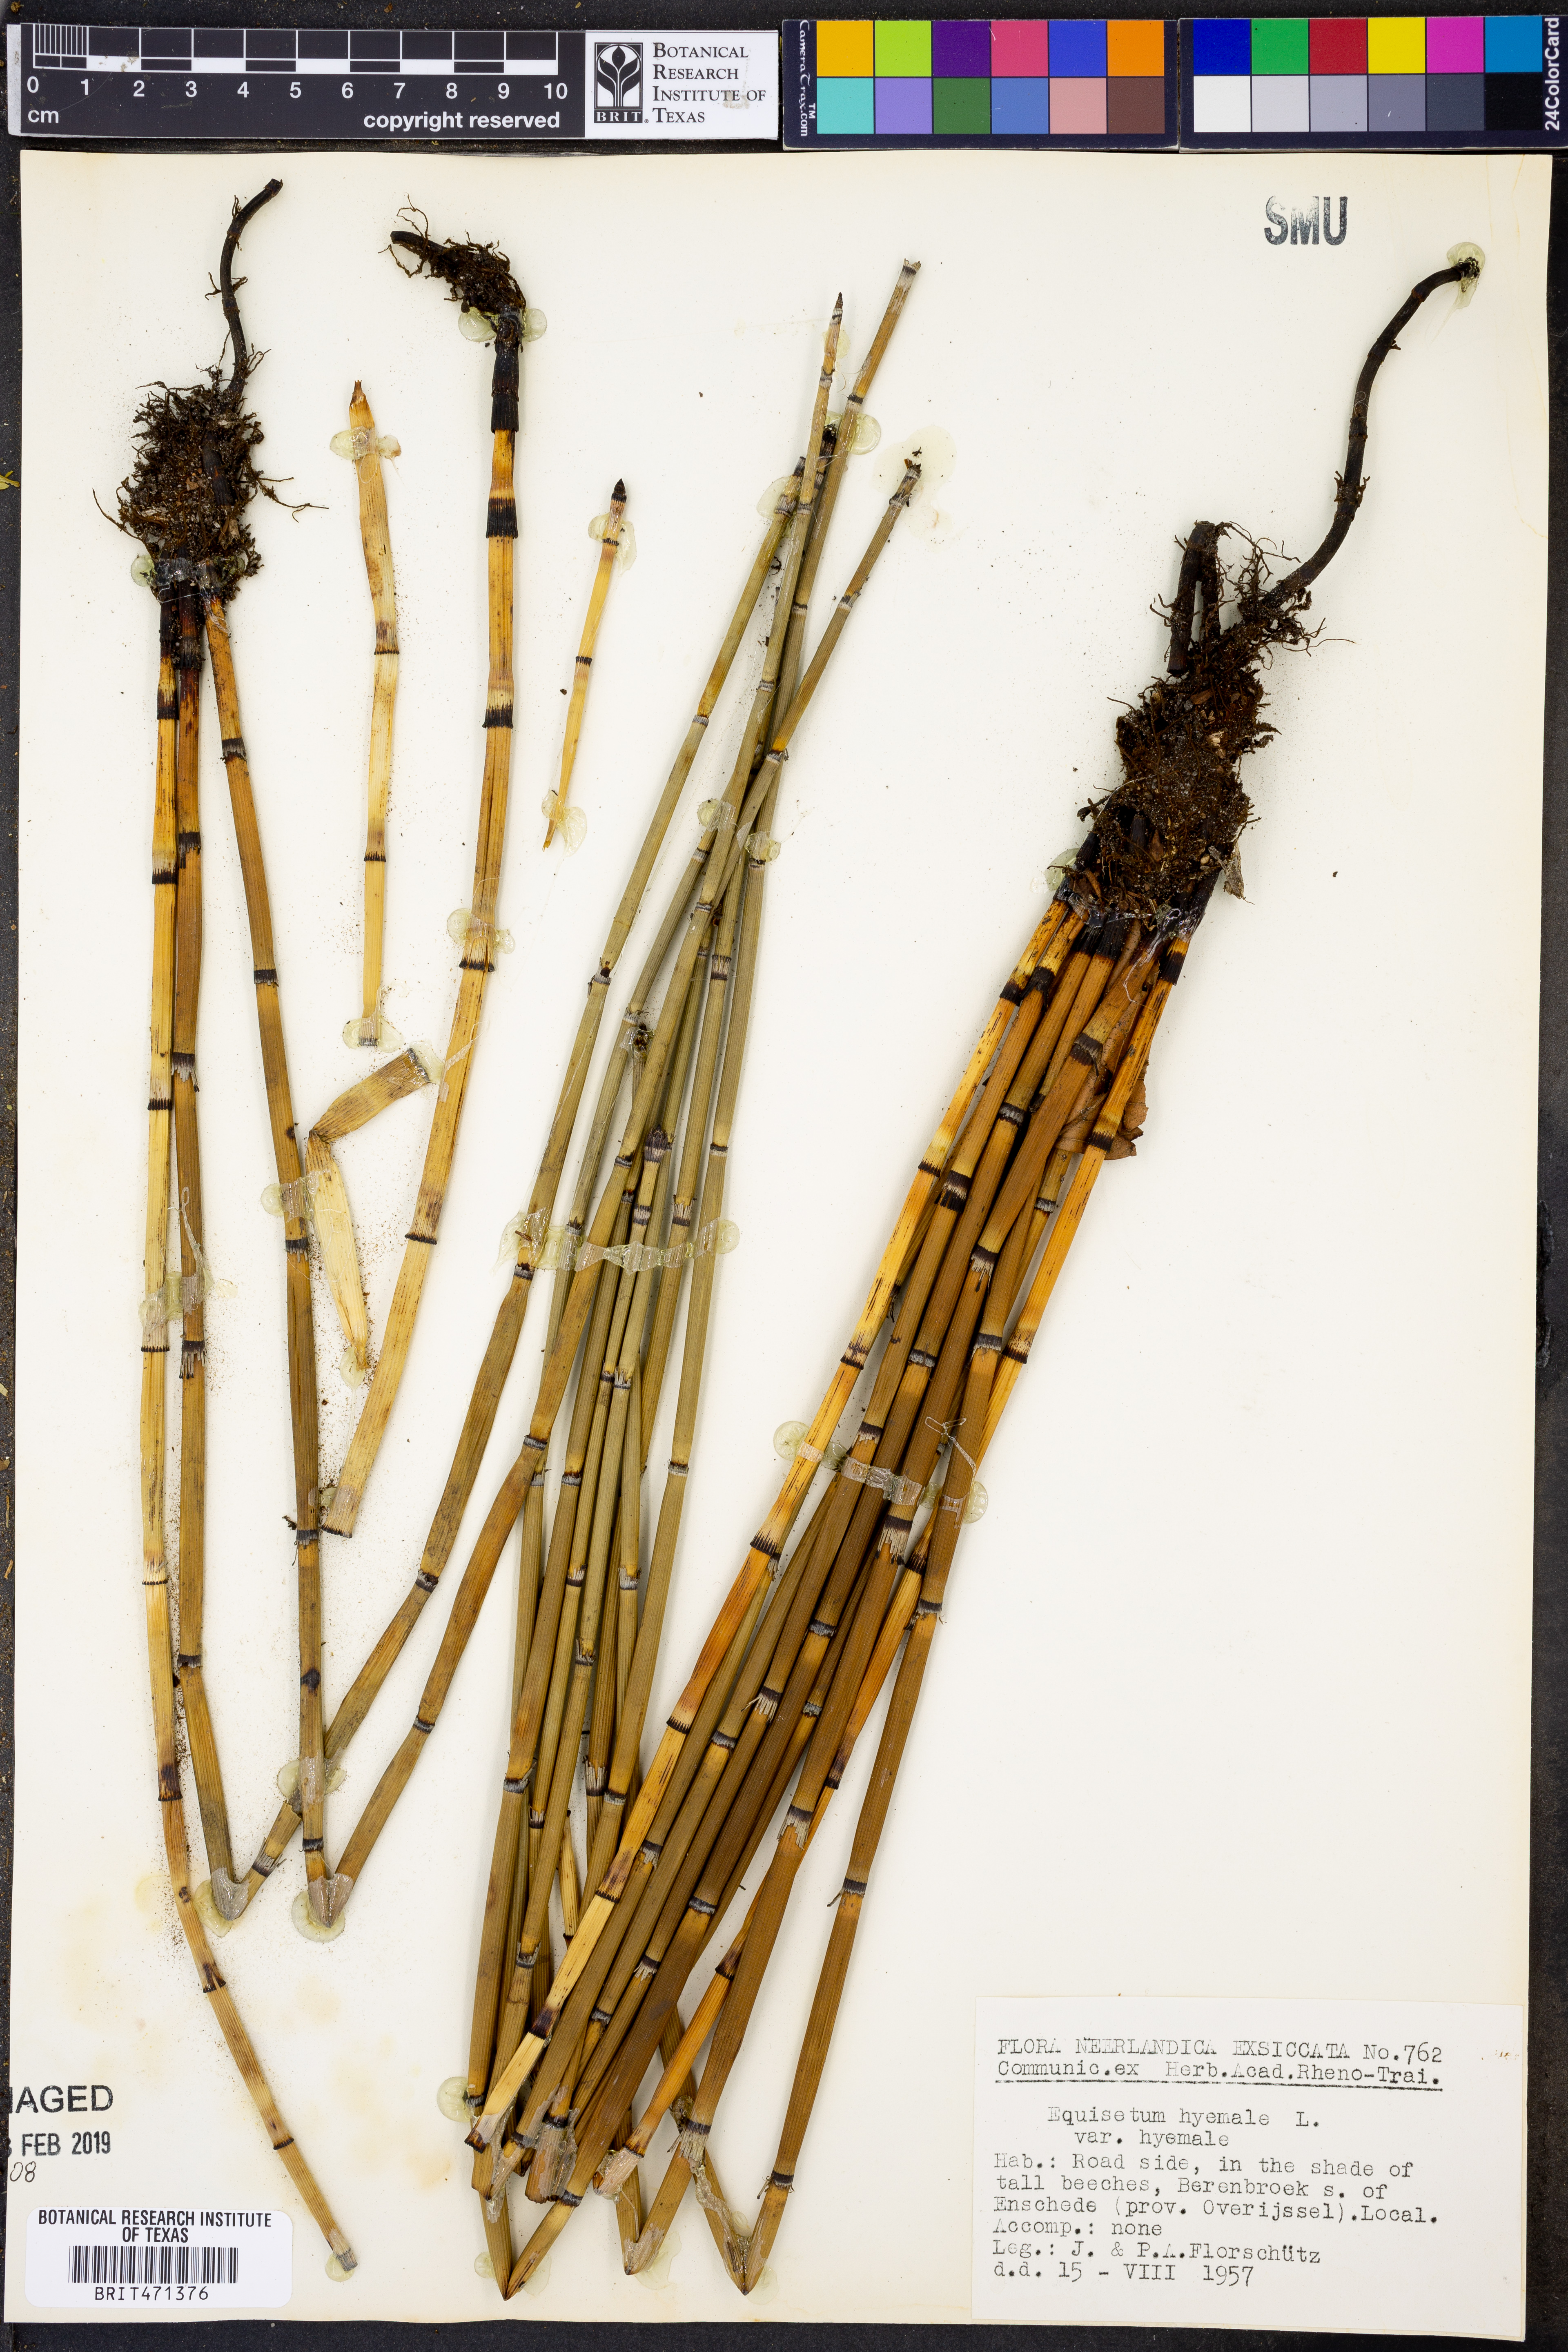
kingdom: Plantae
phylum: Tracheophyta
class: Polypodiopsida
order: Equisetales
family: Equisetaceae
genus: Equisetum
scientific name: Equisetum hyemale
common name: Rough horsetail
